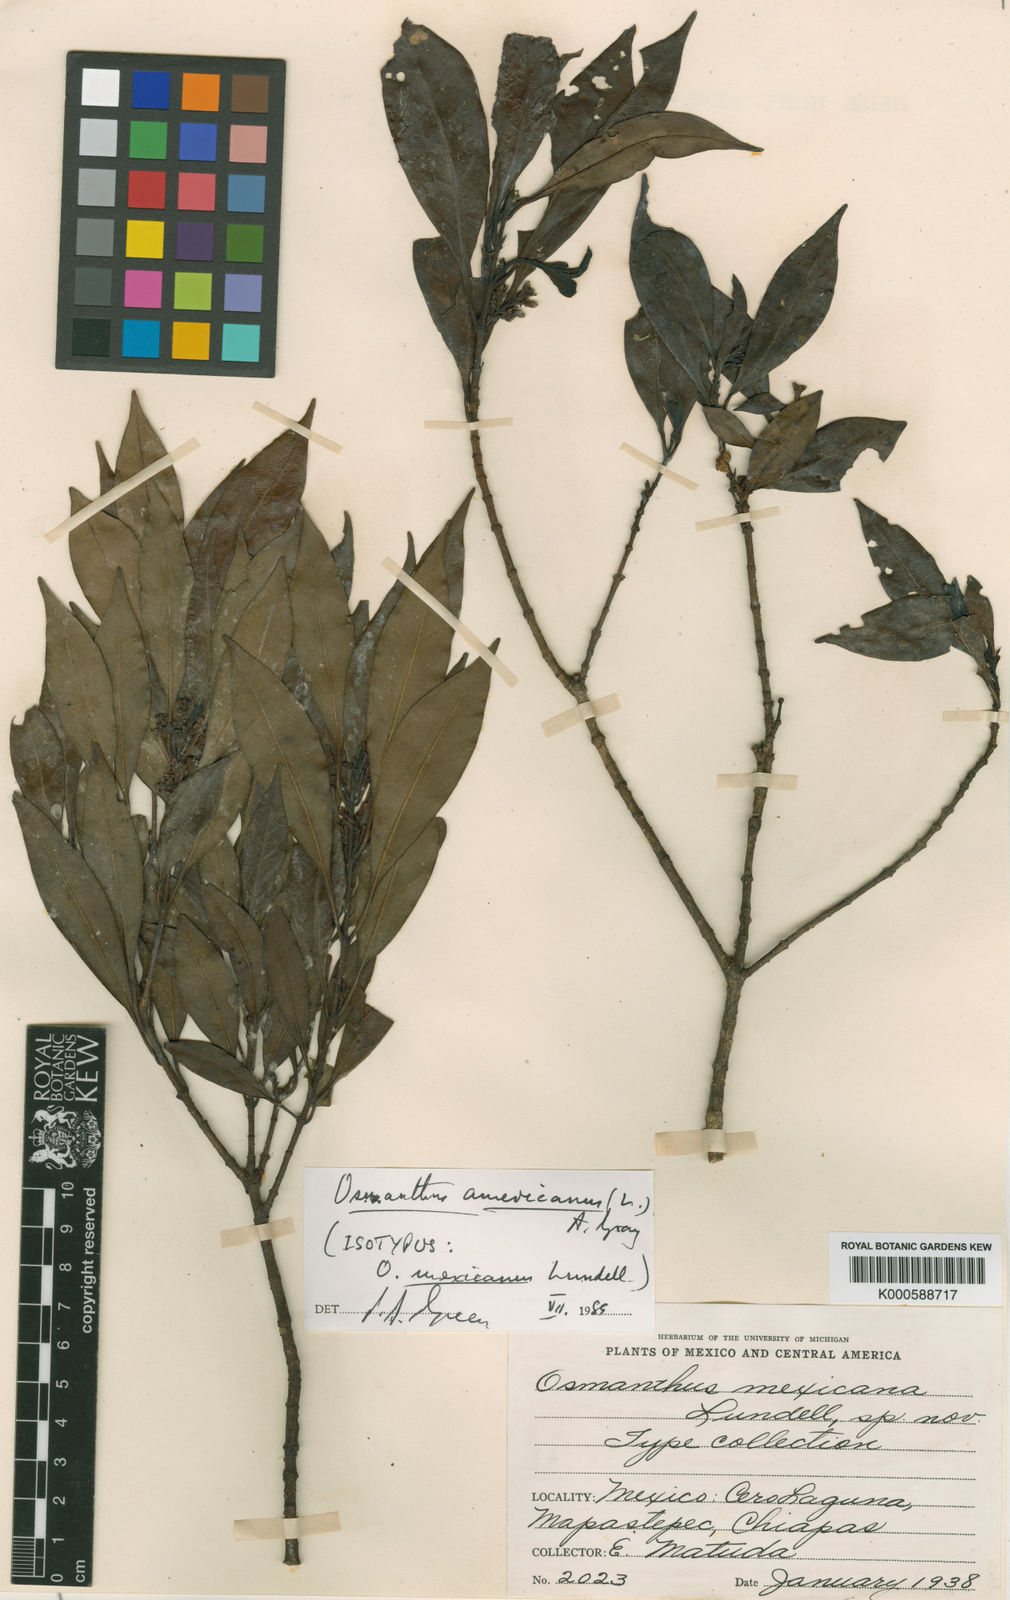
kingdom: Plantae
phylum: Tracheophyta
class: Magnoliopsida
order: Lamiales
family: Oleaceae
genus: Osmanthus
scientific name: Osmanthus
